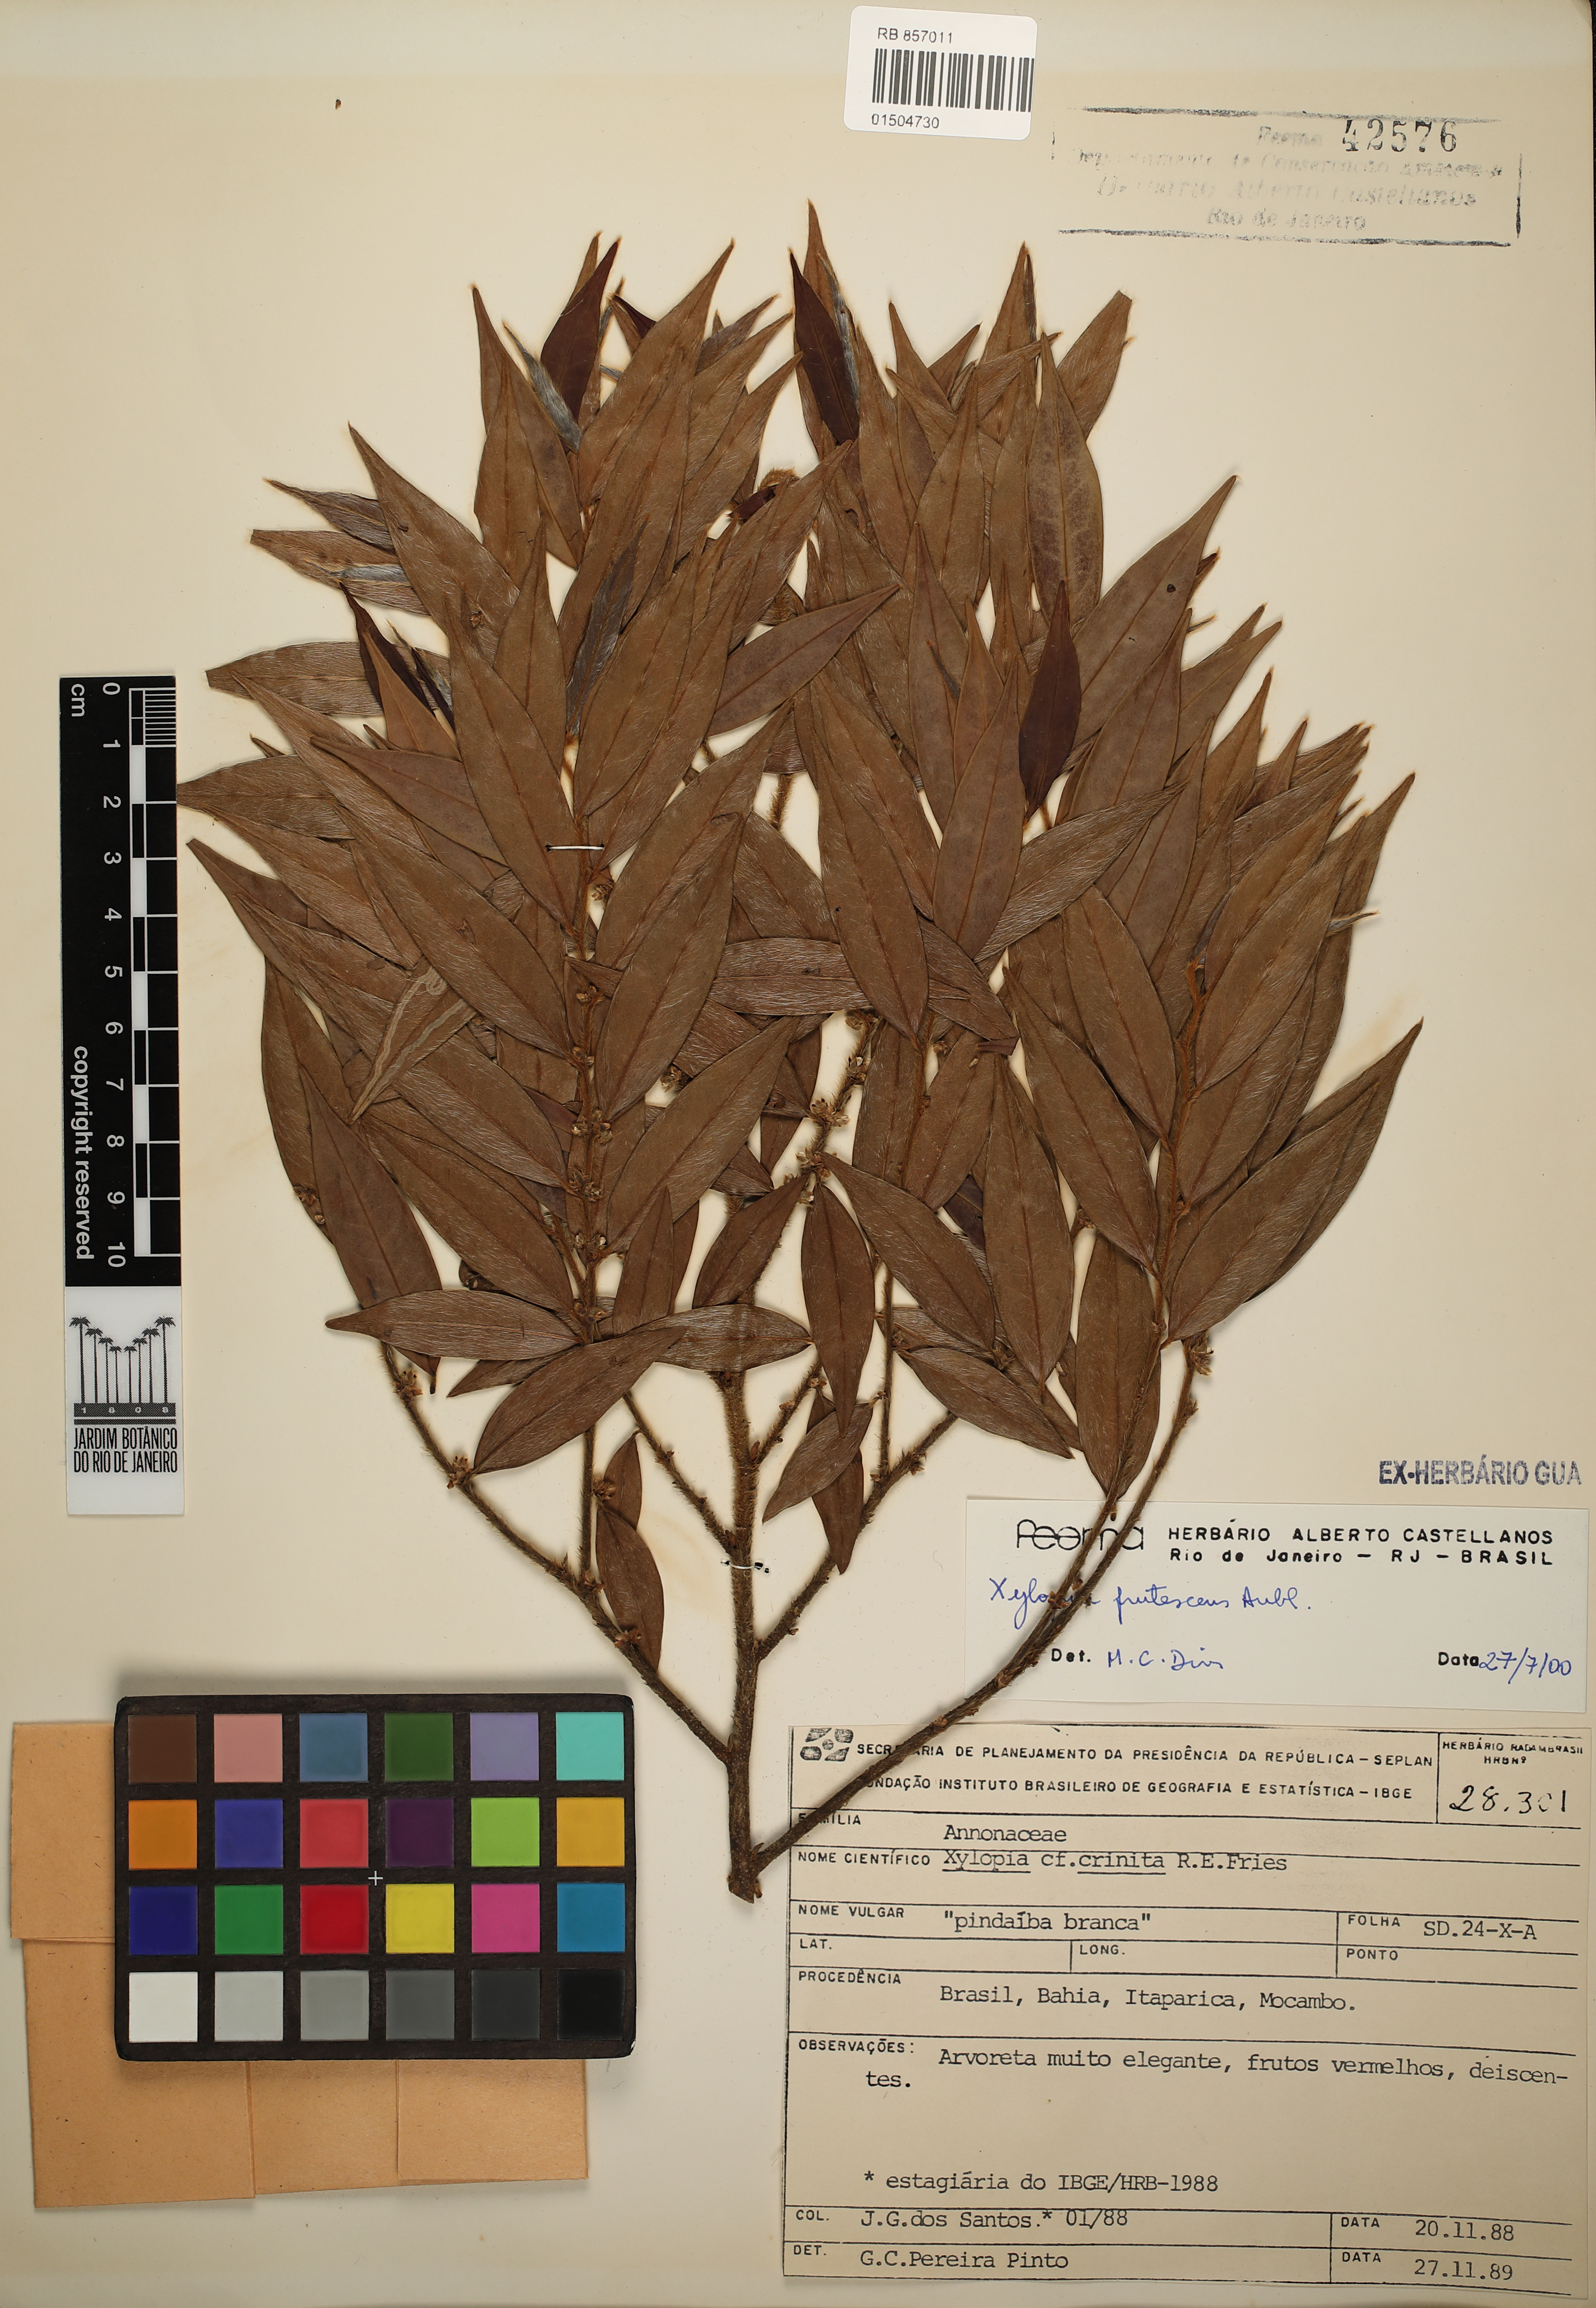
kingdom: Plantae
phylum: Tracheophyta
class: Magnoliopsida
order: Magnoliales
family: Annonaceae
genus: Xylopia
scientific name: Xylopia frutescens
